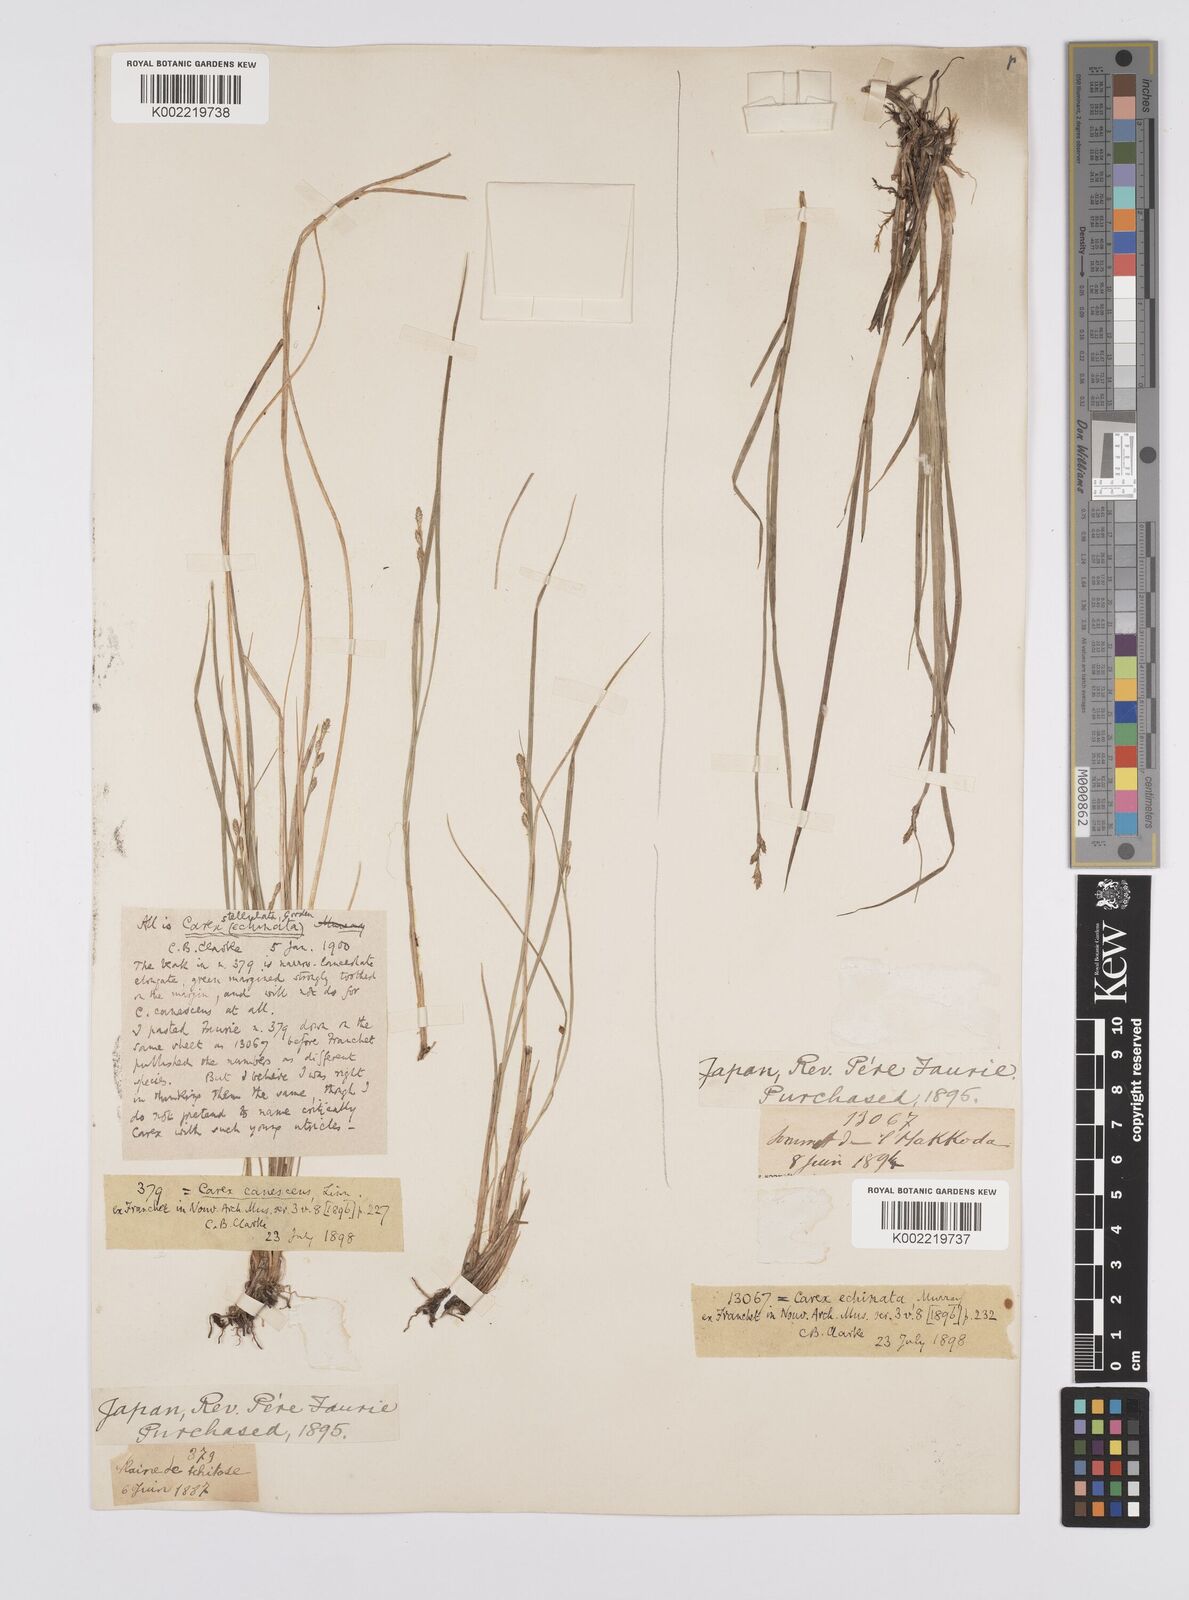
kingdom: Plantae
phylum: Tracheophyta
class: Liliopsida
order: Poales
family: Cyperaceae
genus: Carex
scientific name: Carex echinata
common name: Star sedge
